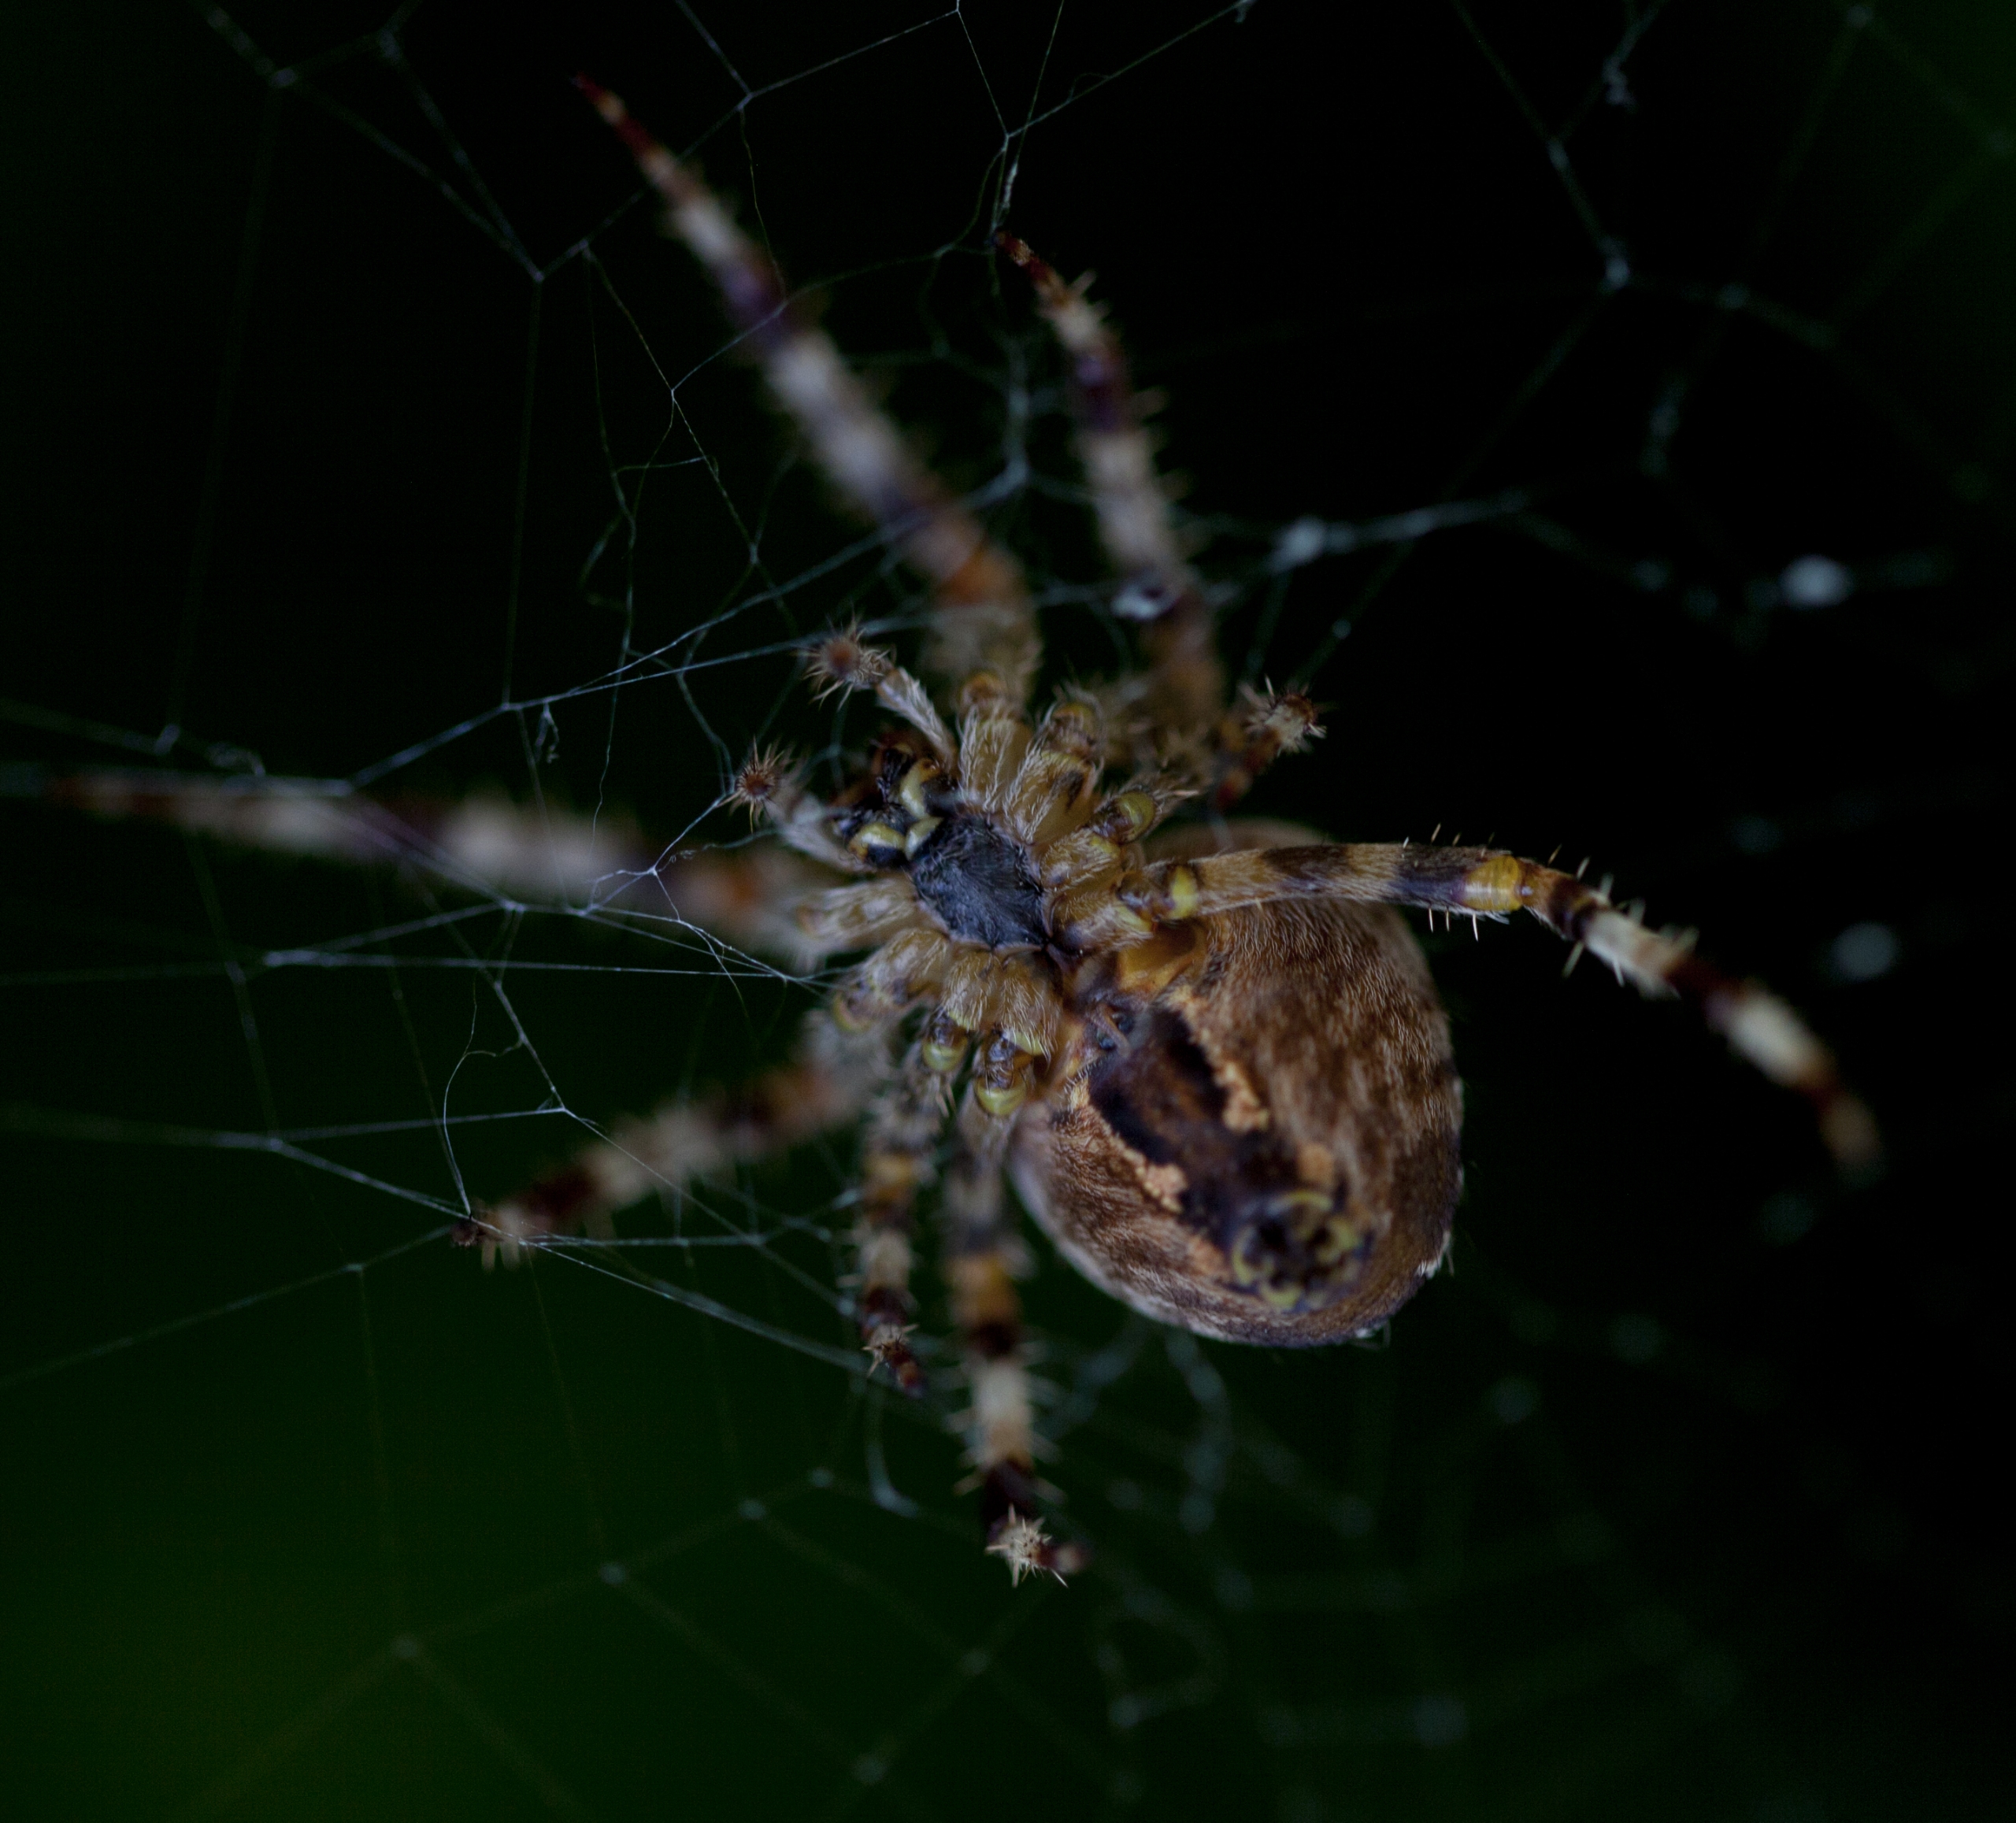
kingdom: Animalia
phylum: Arthropoda
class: Arachnida
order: Araneae
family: Araneidae
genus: Araneus
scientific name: Araneus diadematus
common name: Korsedderkop
